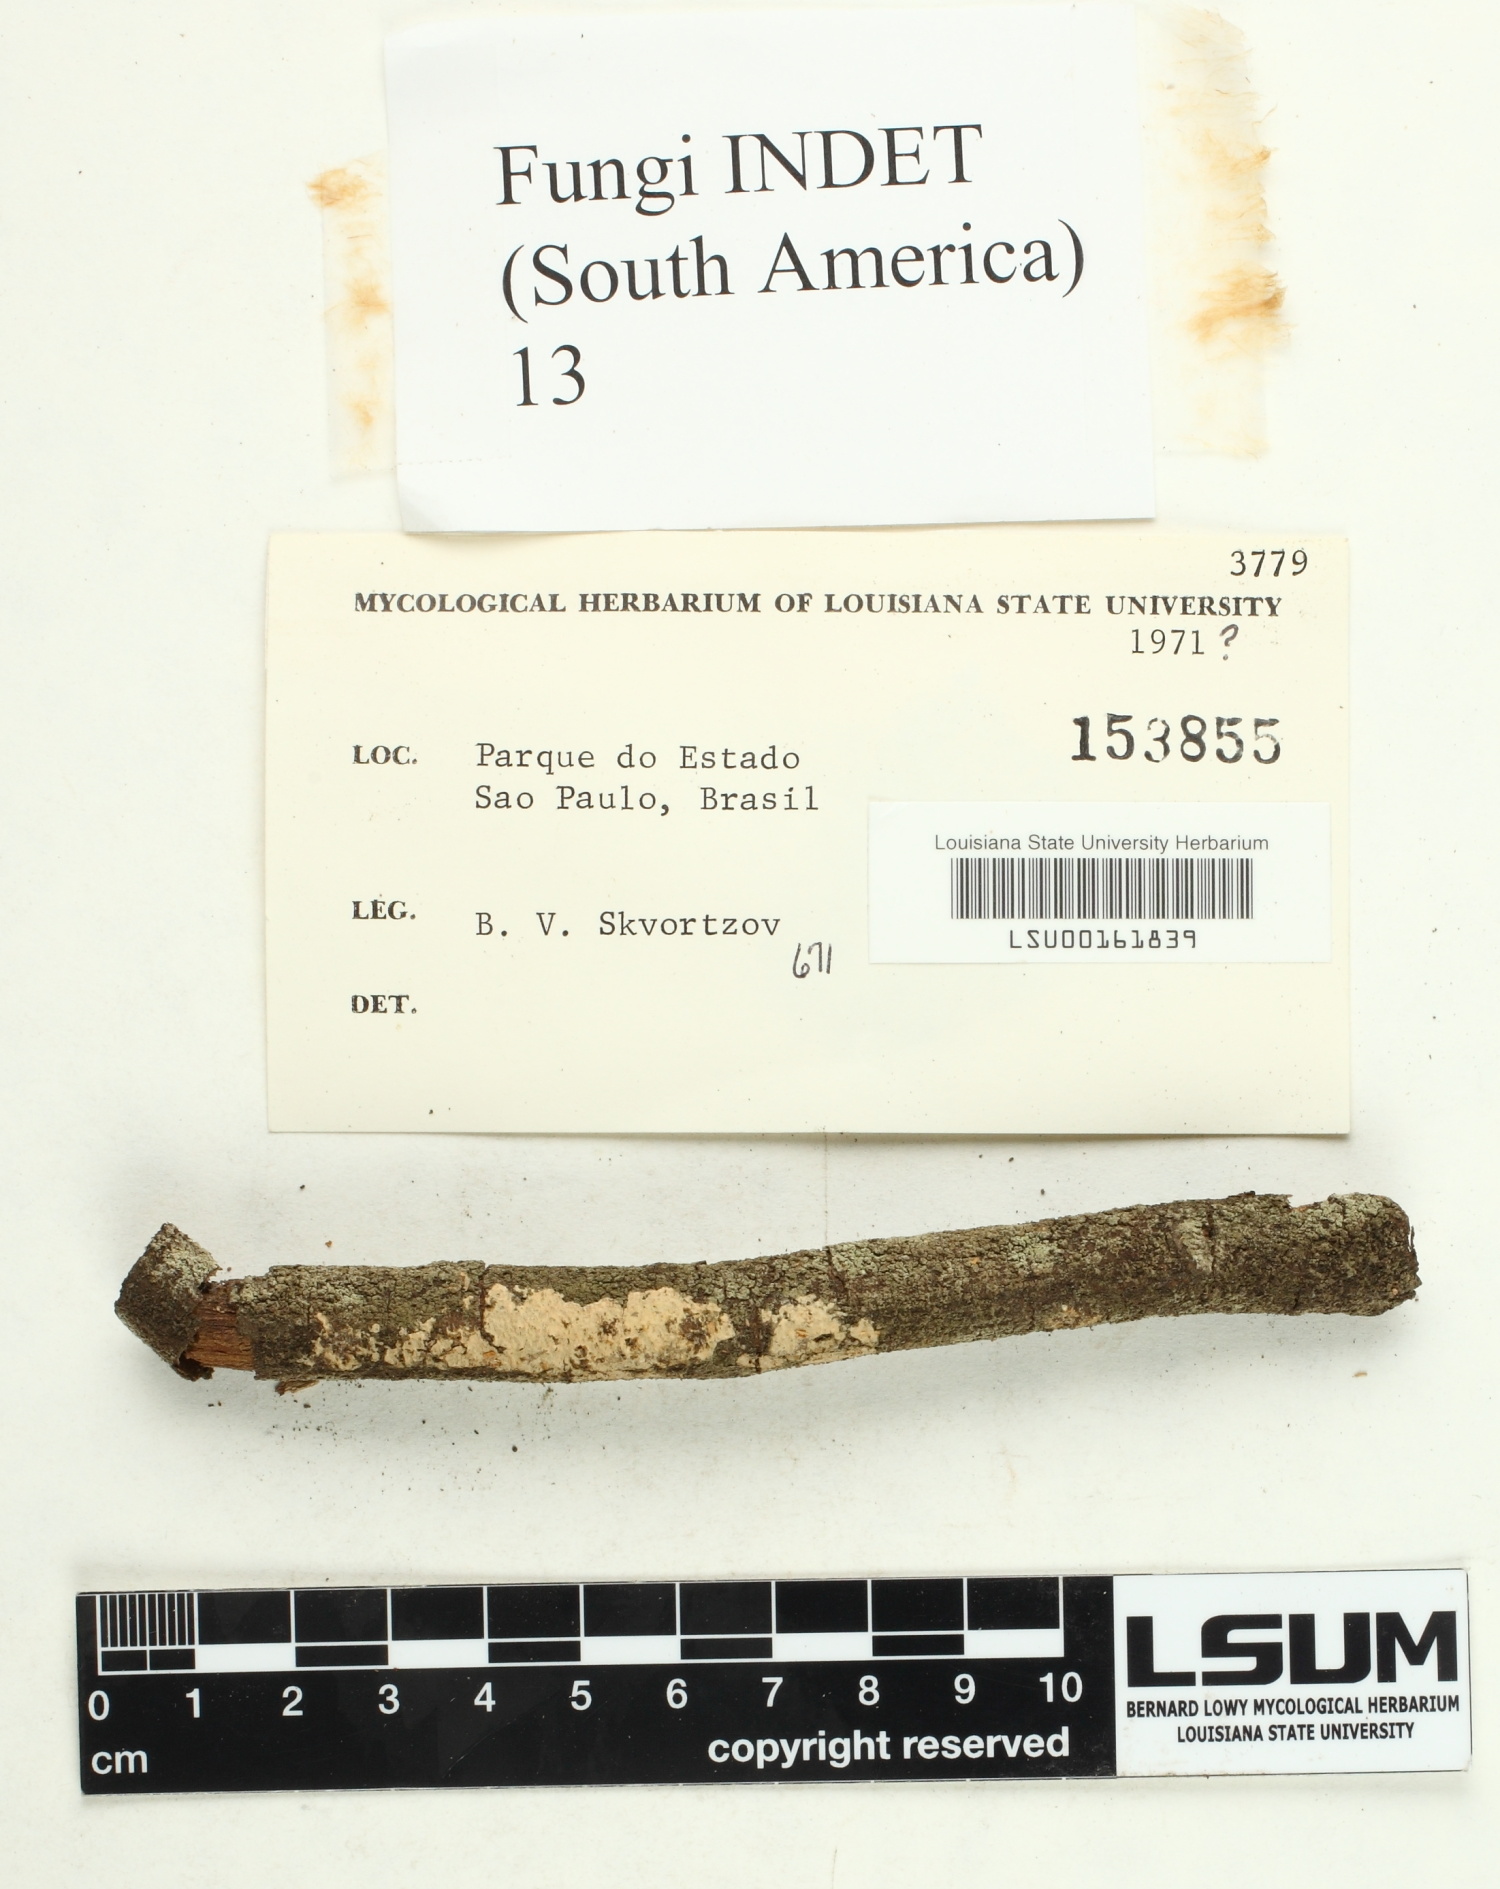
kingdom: Fungi
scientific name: Fungi
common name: Fungi
